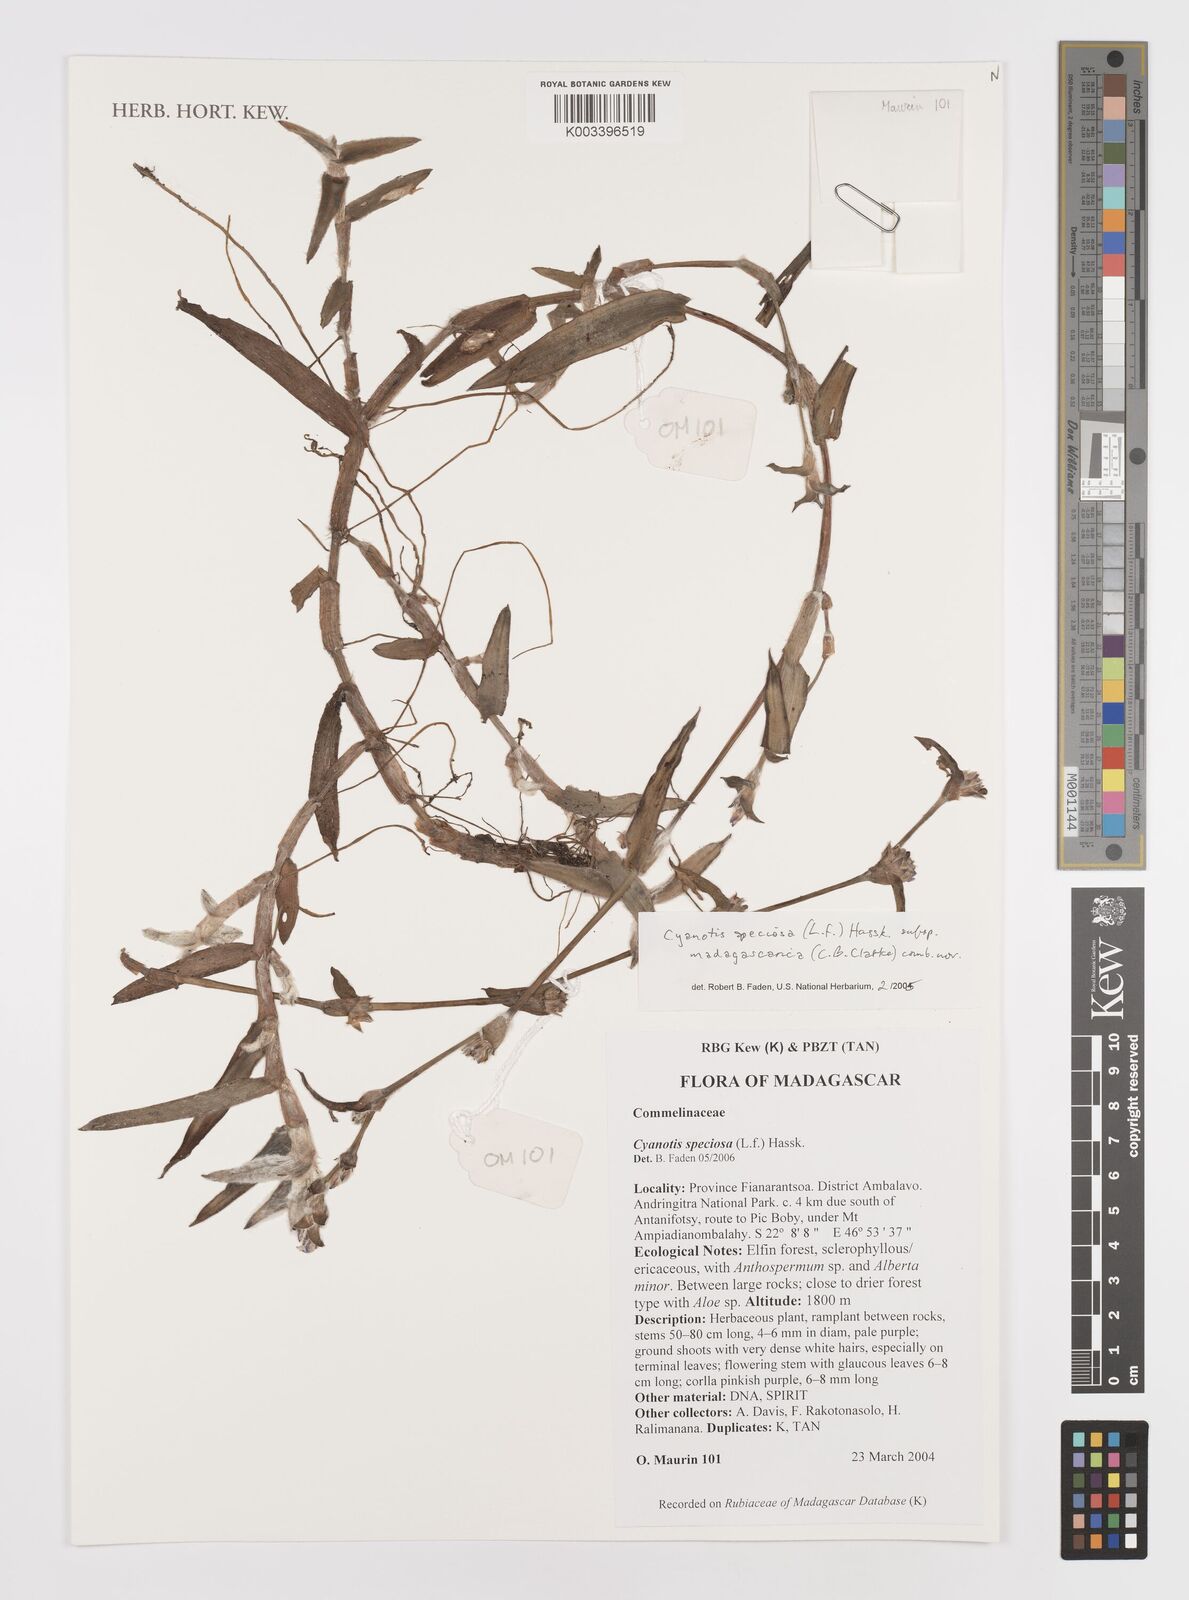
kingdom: Plantae
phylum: Tracheophyta
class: Liliopsida
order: Commelinales
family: Commelinaceae
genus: Cyanotis
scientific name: Cyanotis speciosa
